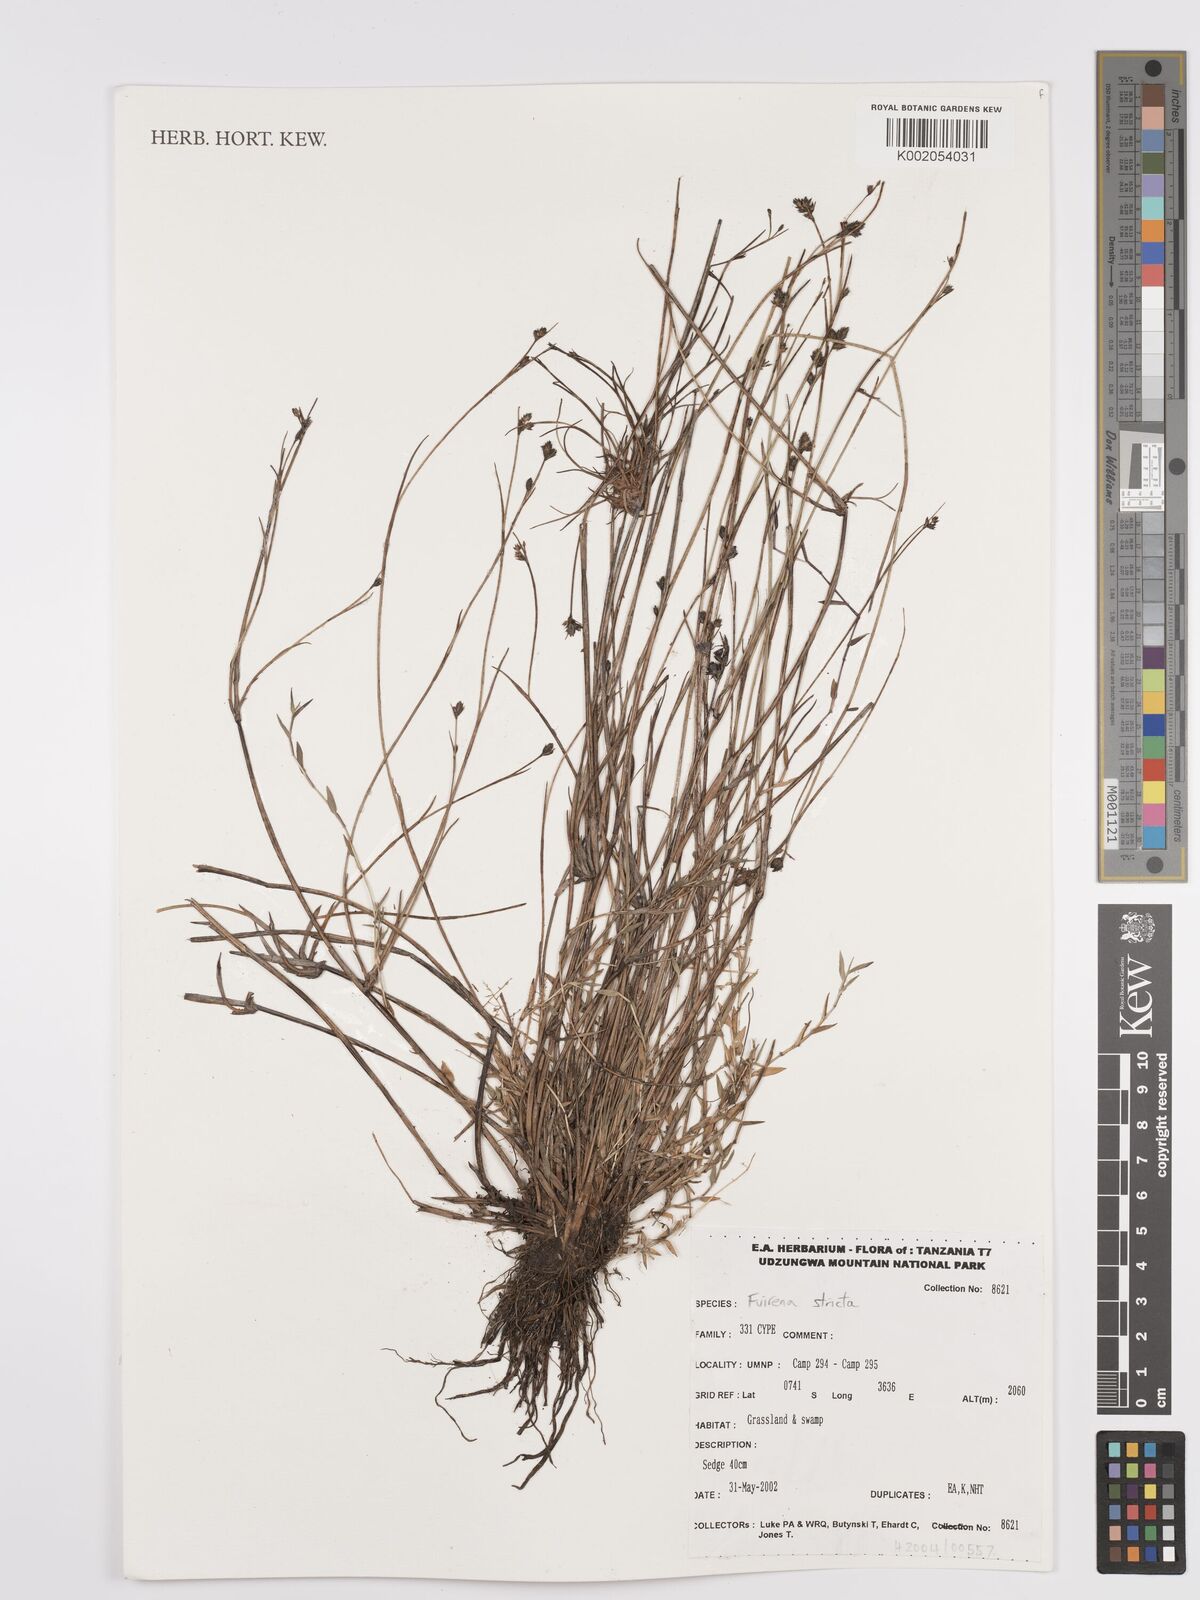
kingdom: Plantae
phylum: Tracheophyta
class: Liliopsida
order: Poales
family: Cyperaceae
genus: Fuirena
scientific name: Fuirena stricta
